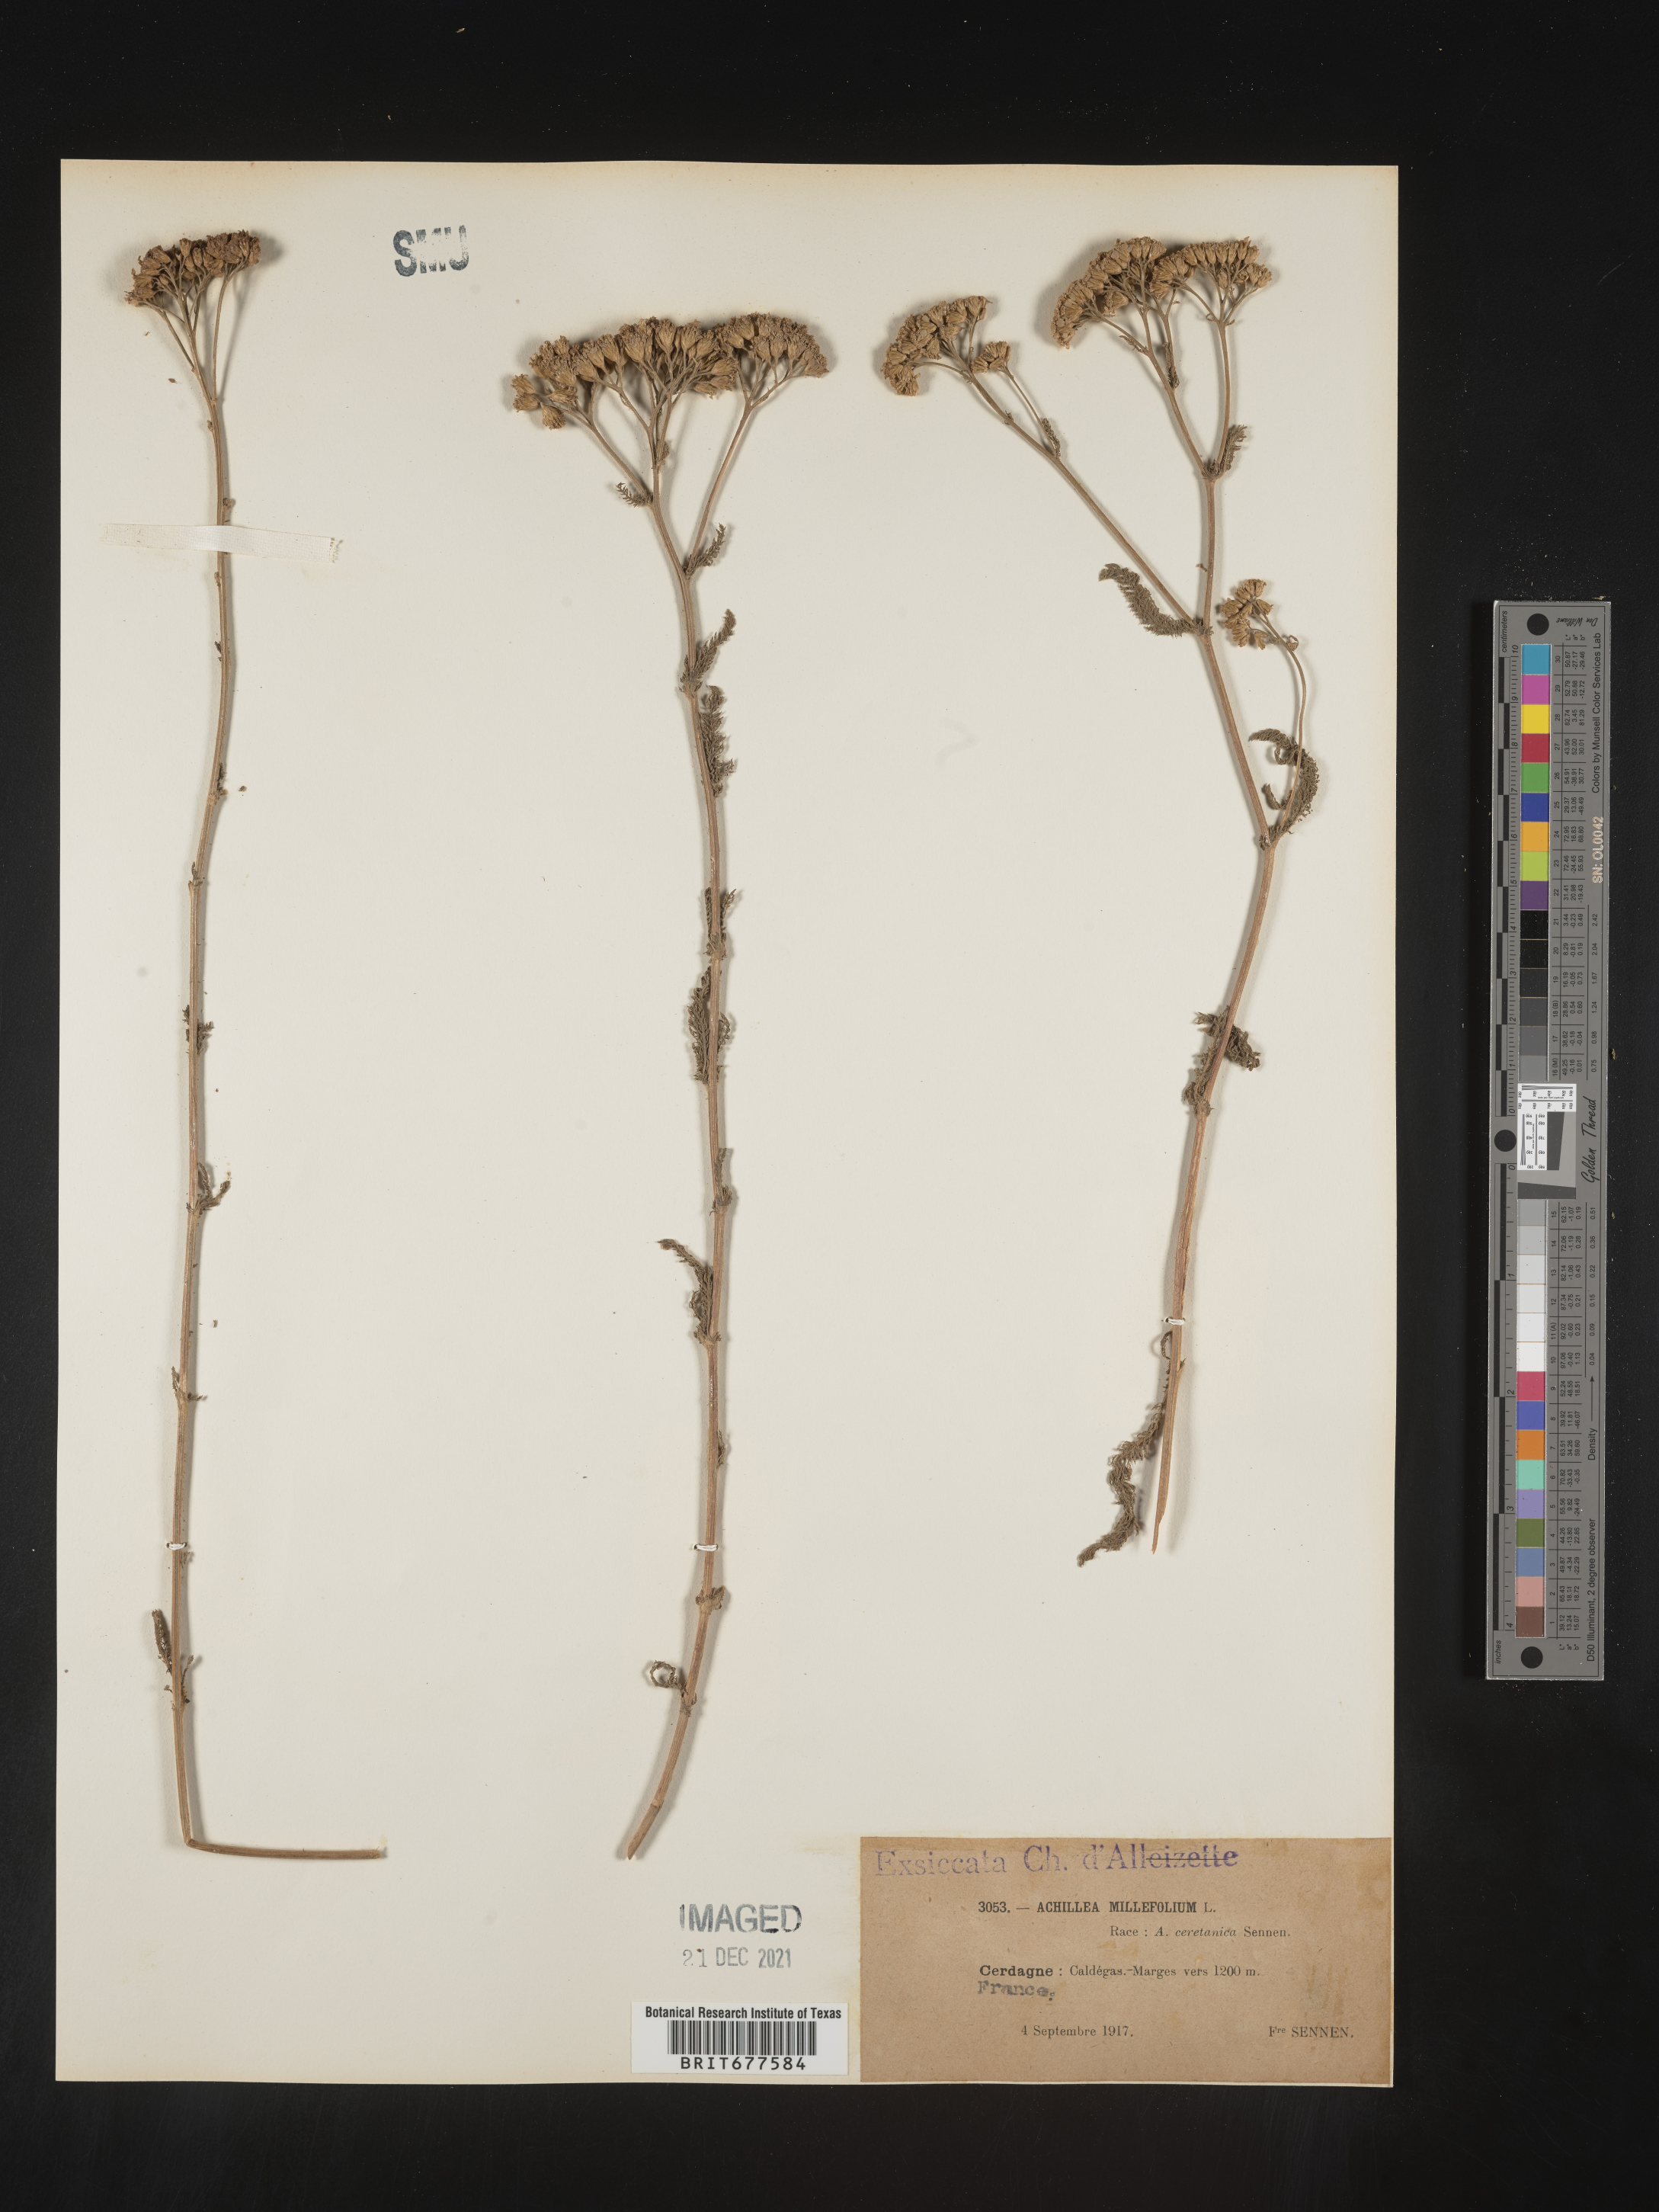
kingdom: Plantae
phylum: Tracheophyta
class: Magnoliopsida
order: Asterales
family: Asteraceae
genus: Achillea
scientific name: Achillea millefolium
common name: Yarrow
